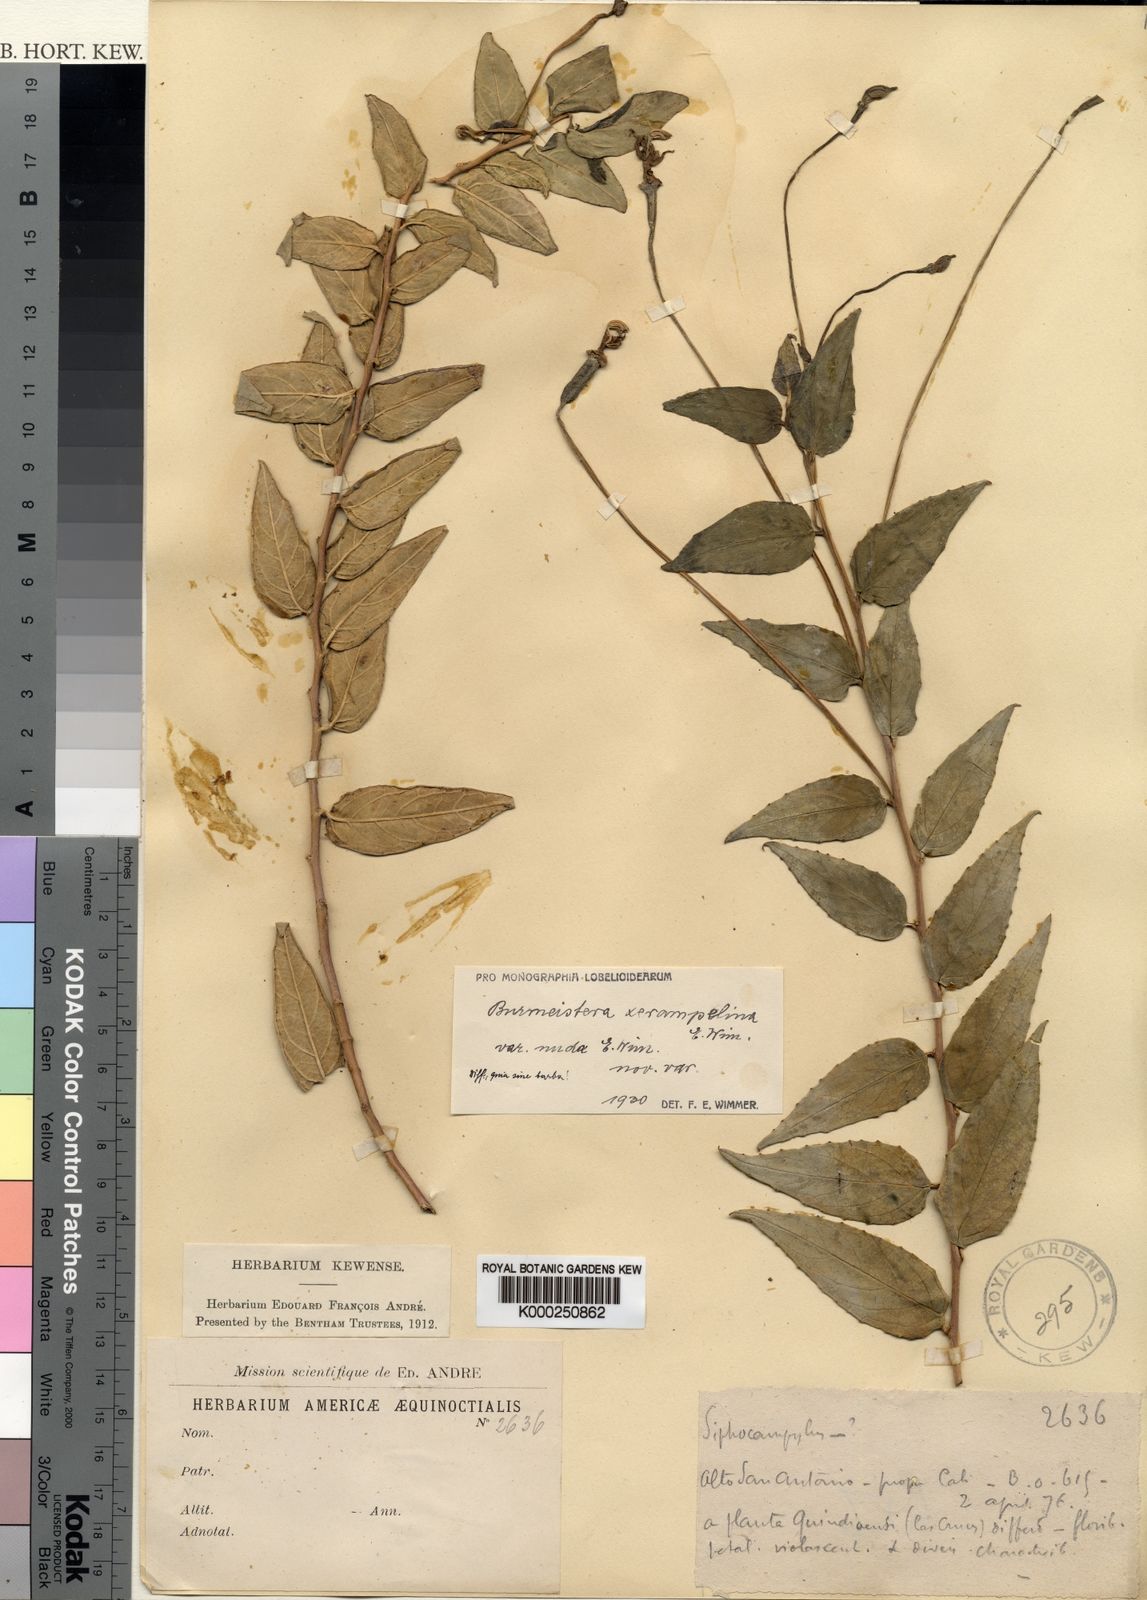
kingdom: Plantae
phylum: Tracheophyta
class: Magnoliopsida
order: Asterales
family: Campanulaceae
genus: Burmeistera
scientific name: Burmeistera nuda
